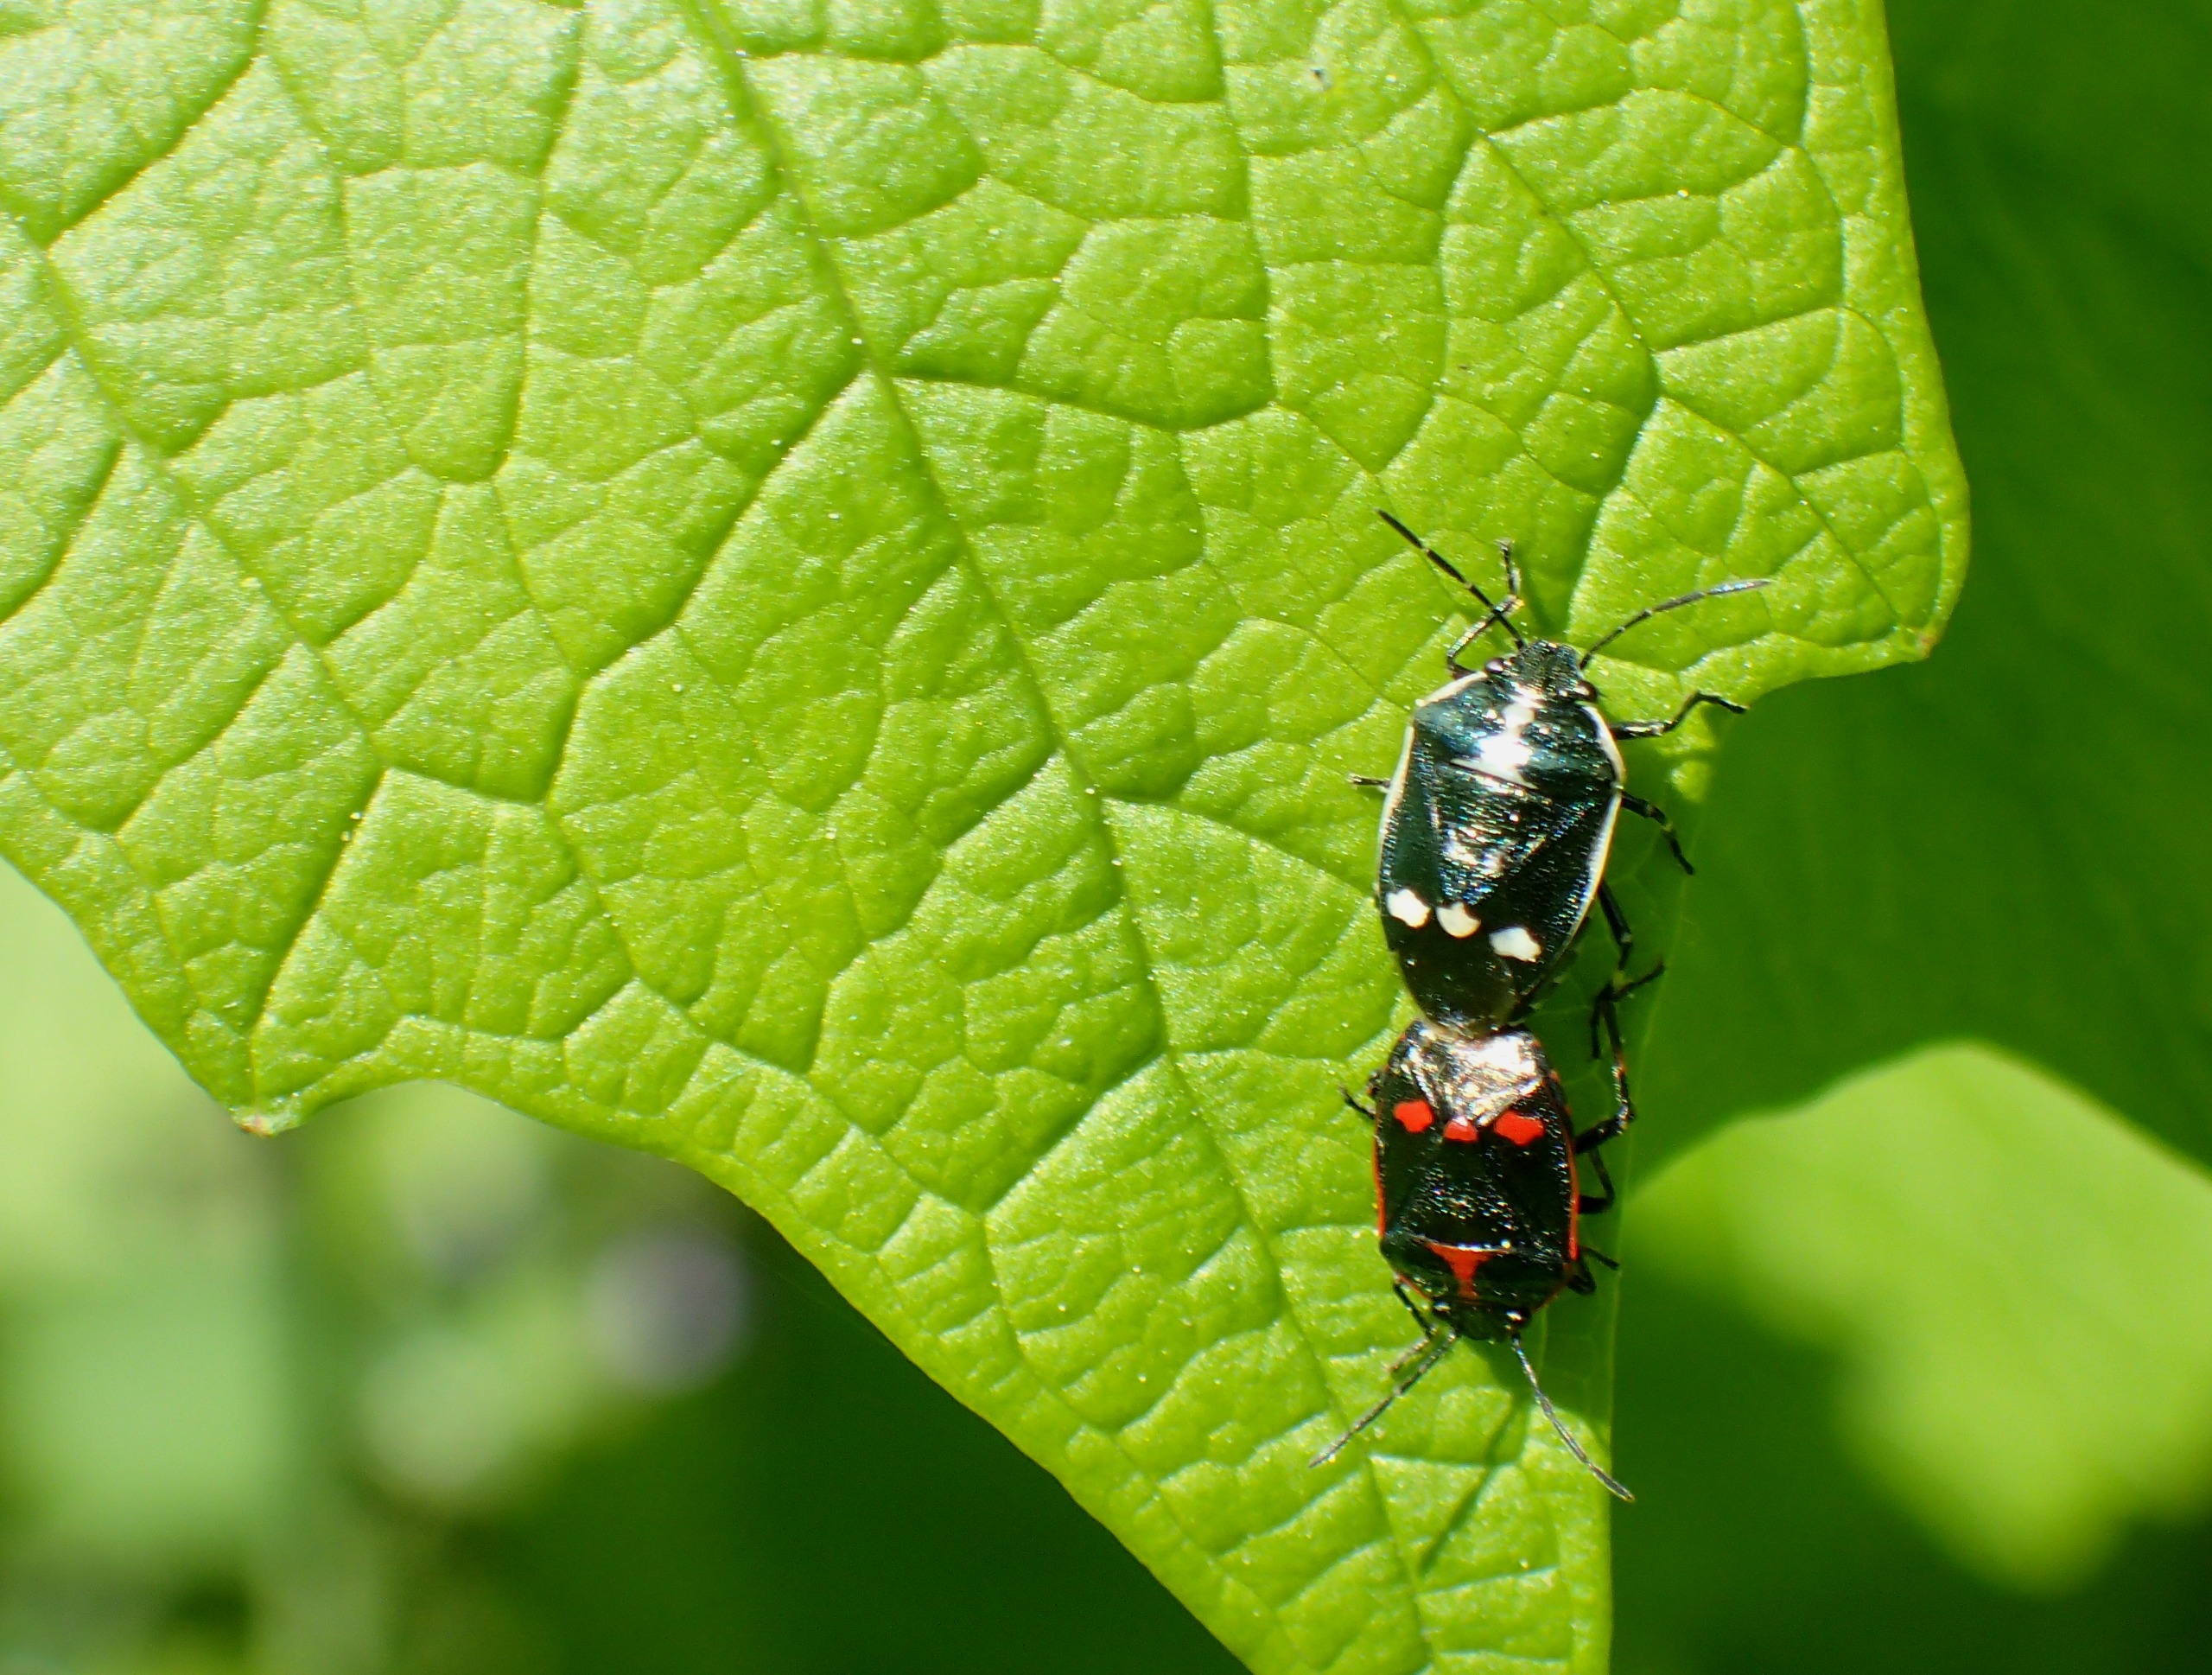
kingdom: Animalia
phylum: Arthropoda
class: Insecta
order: Hemiptera
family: Pentatomidae
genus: Eurydema
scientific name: Eurydema oleracea
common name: Almindelig kåltæge
